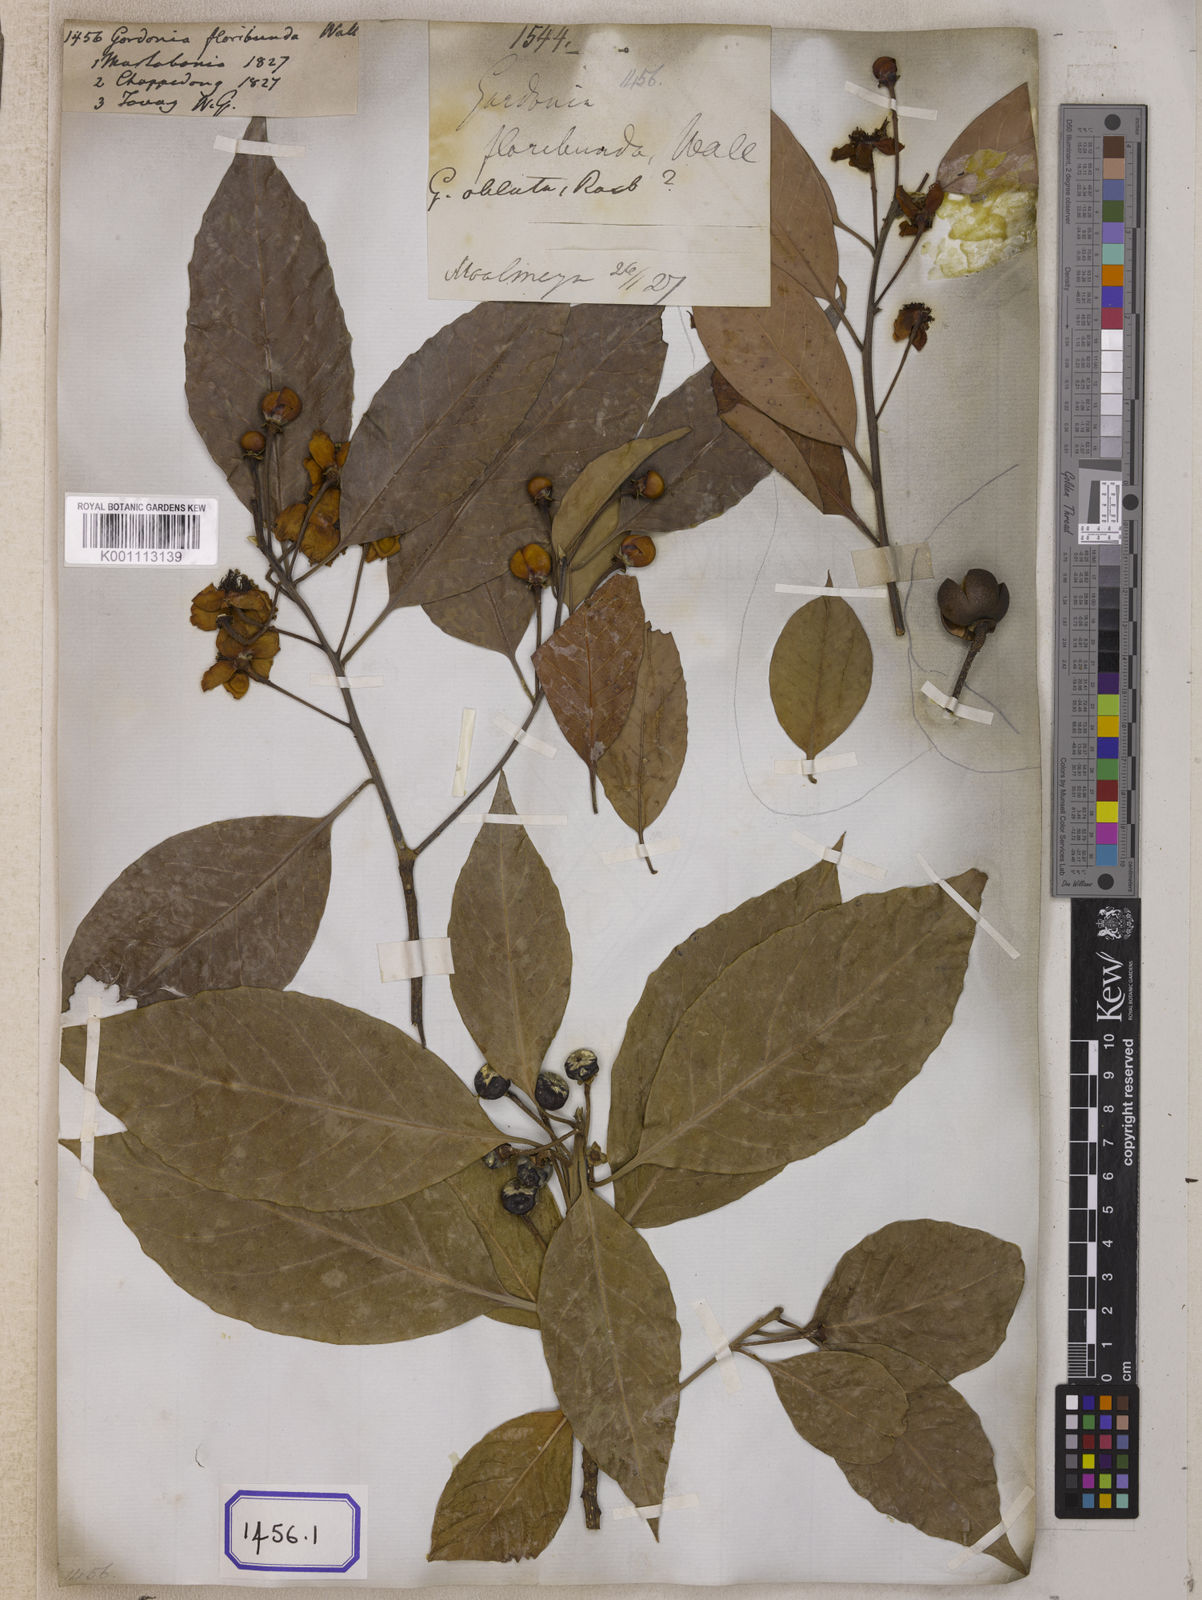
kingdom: Plantae
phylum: Tracheophyta
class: Magnoliopsida
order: Ericales
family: Theaceae
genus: Schima
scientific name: Schima wallichii
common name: Schima
